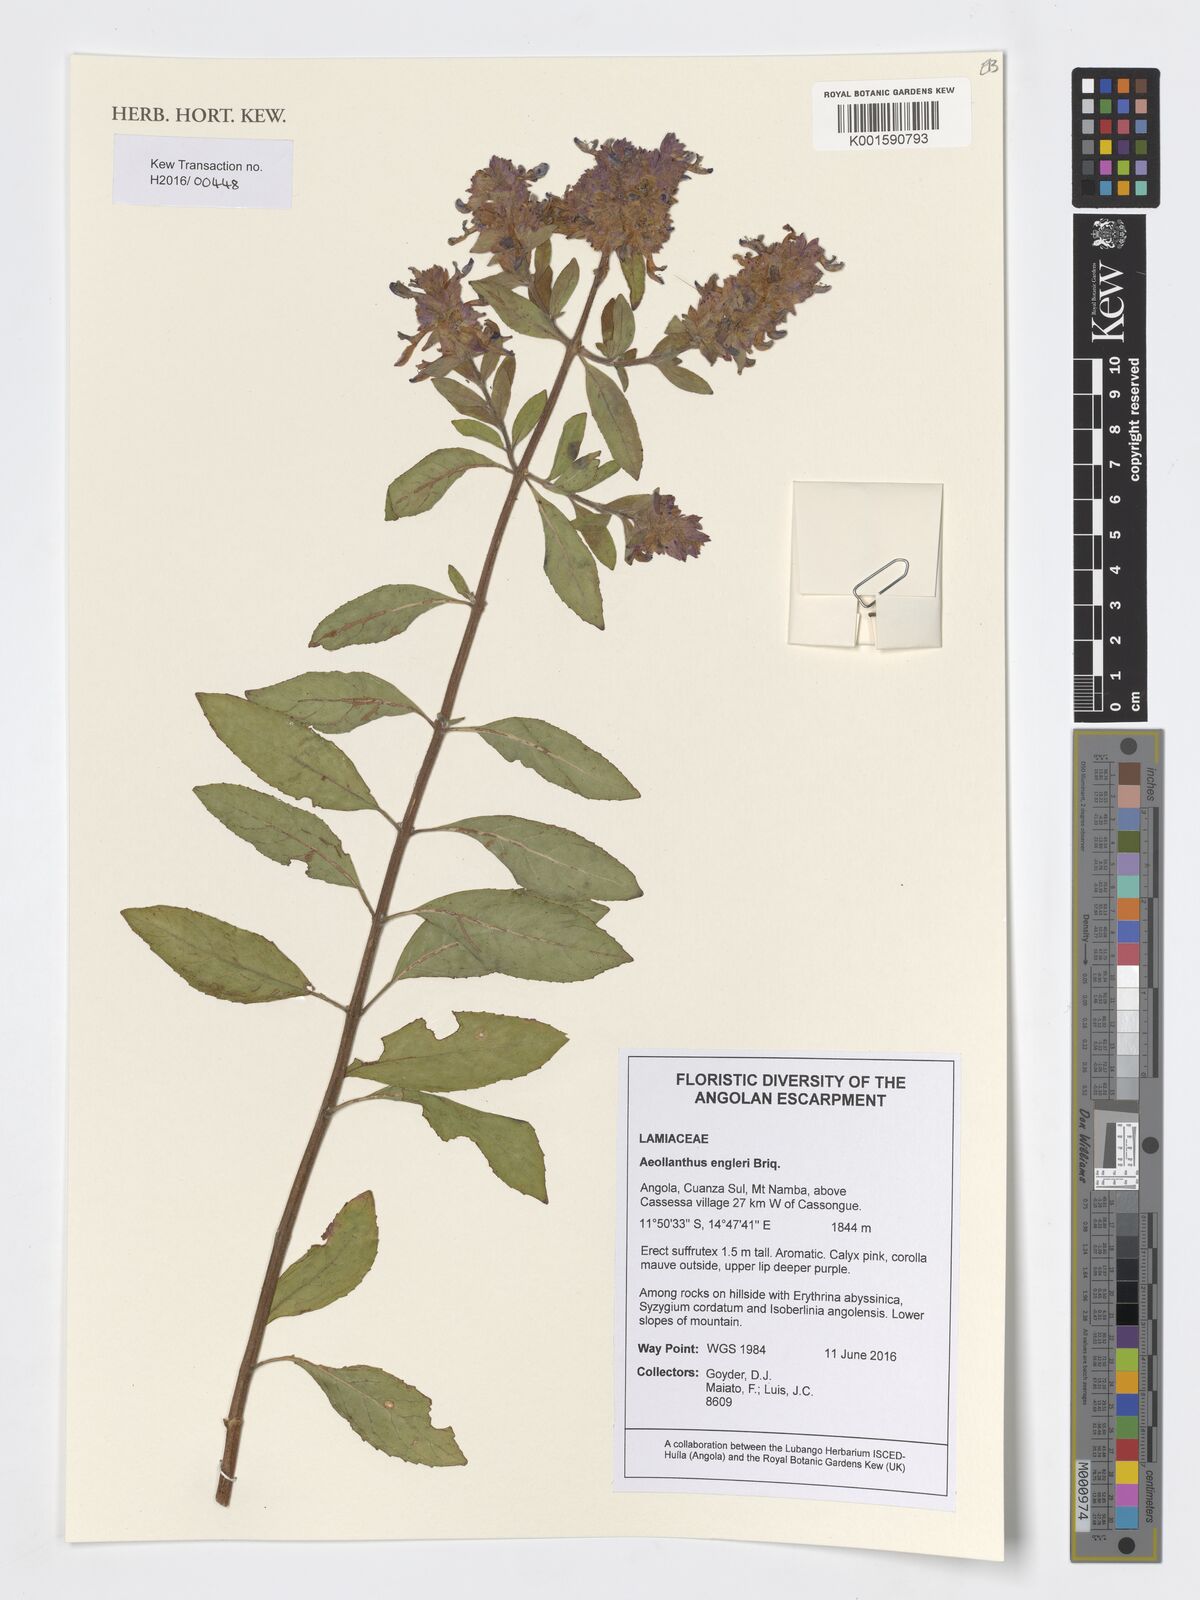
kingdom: Plantae
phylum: Tracheophyta
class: Magnoliopsida
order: Lamiales
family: Lamiaceae
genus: Aeollanthus
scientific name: Aeollanthus engleri
